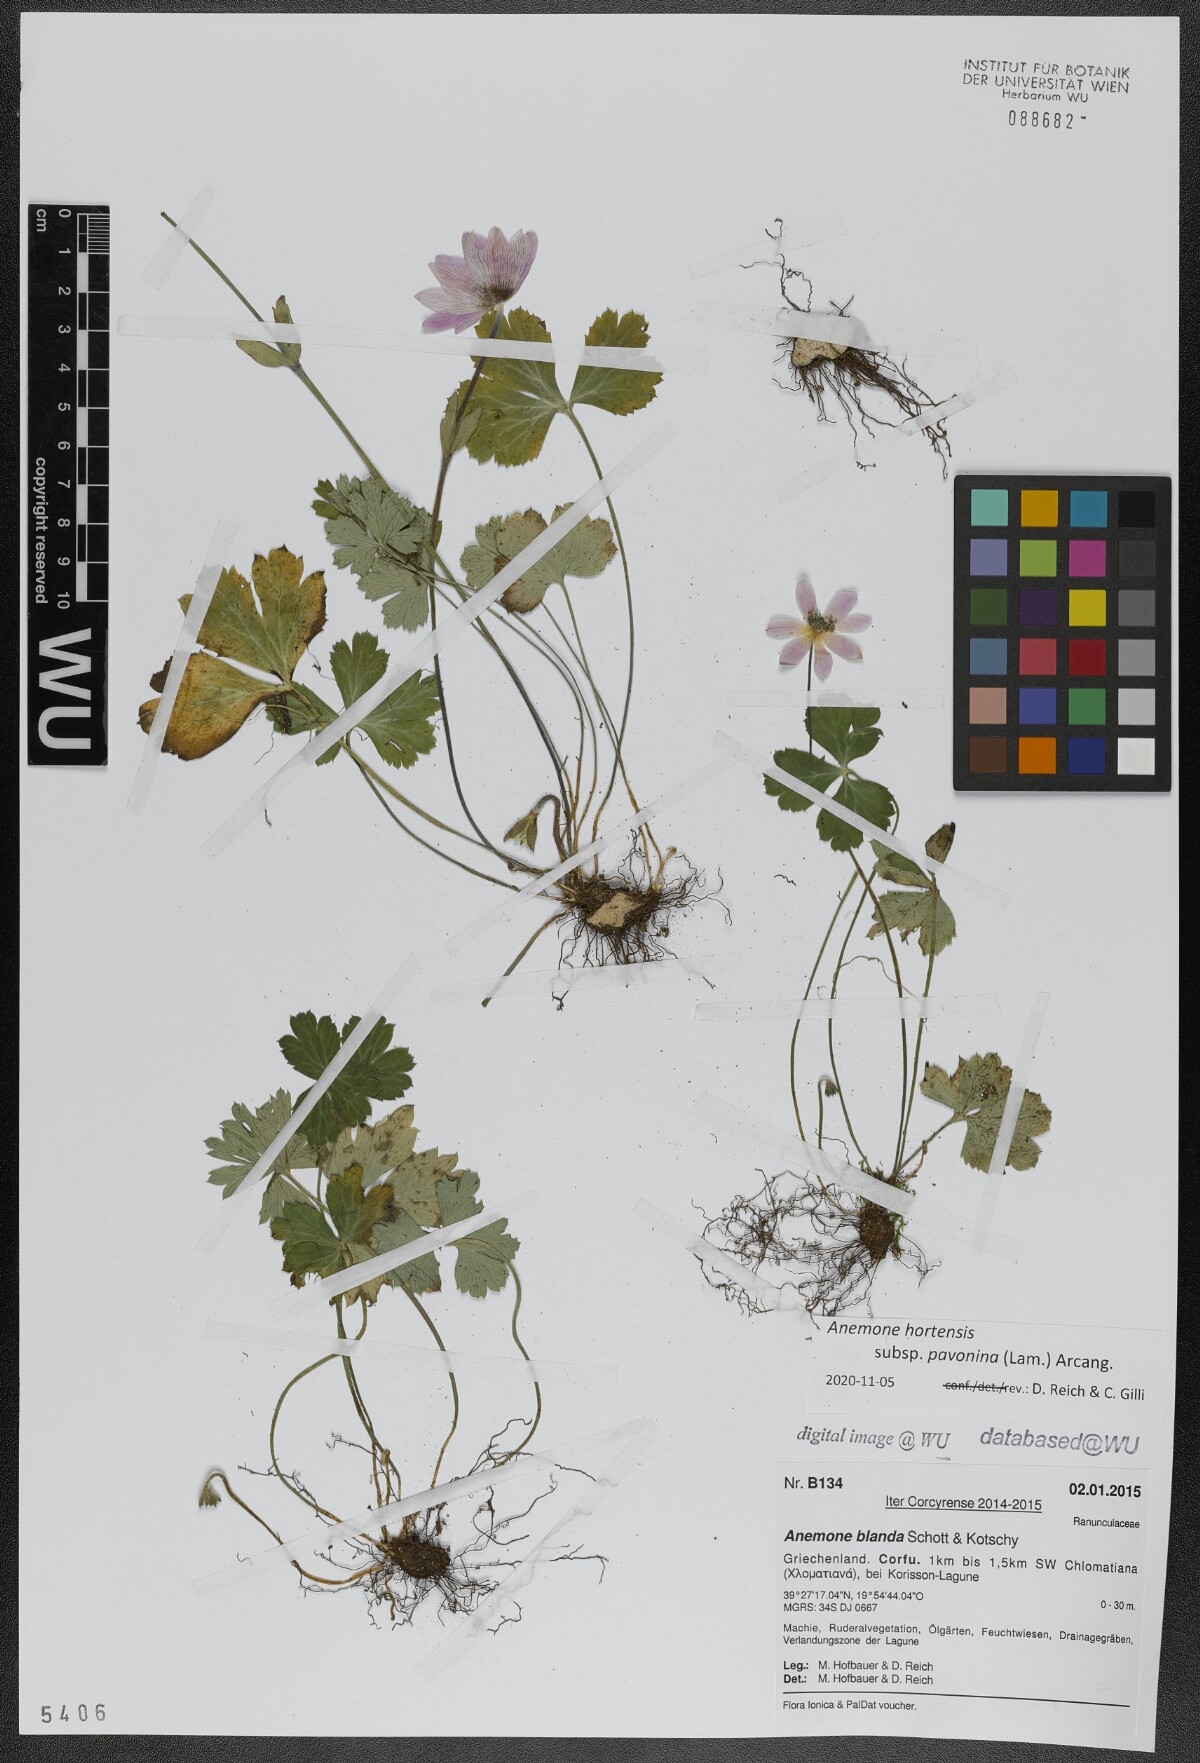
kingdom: Plantae
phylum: Tracheophyta
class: Magnoliopsida
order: Ranunculales
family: Ranunculaceae
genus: Anemone
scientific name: Anemone pavonina
